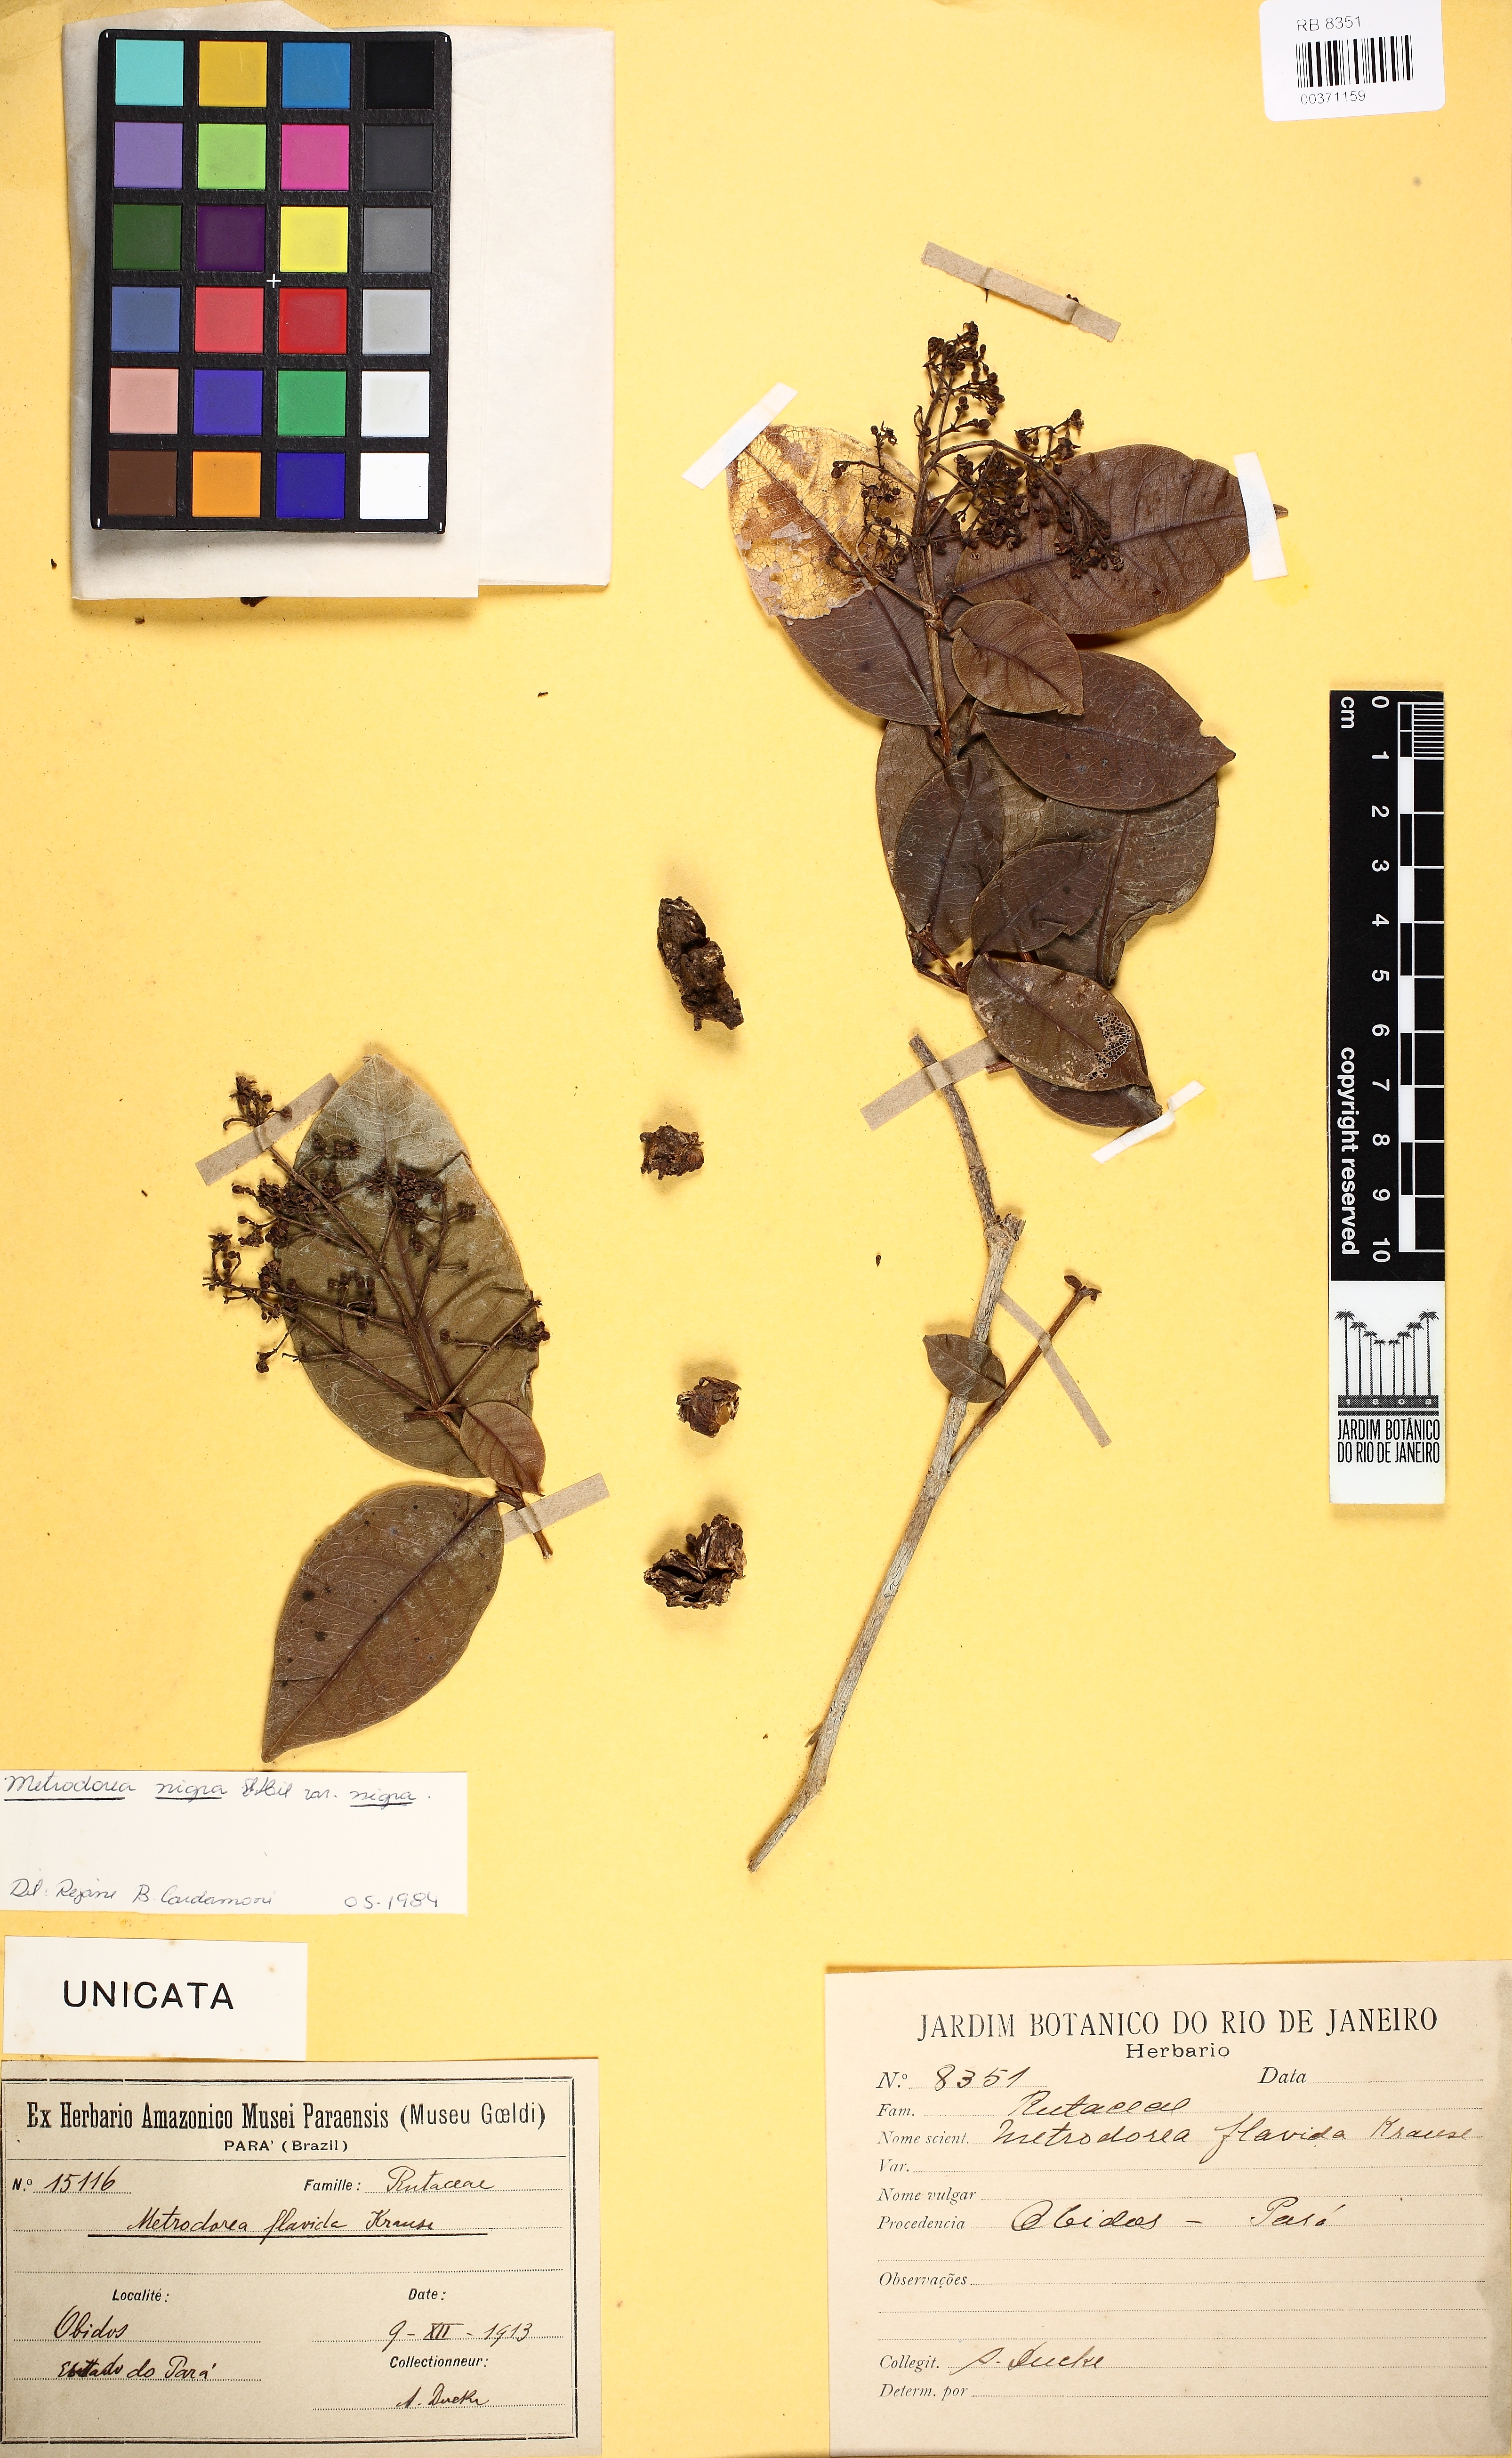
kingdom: Plantae
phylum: Tracheophyta
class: Magnoliopsida
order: Sapindales
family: Rutaceae
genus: Metrodorea
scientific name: Metrodorea flavida
